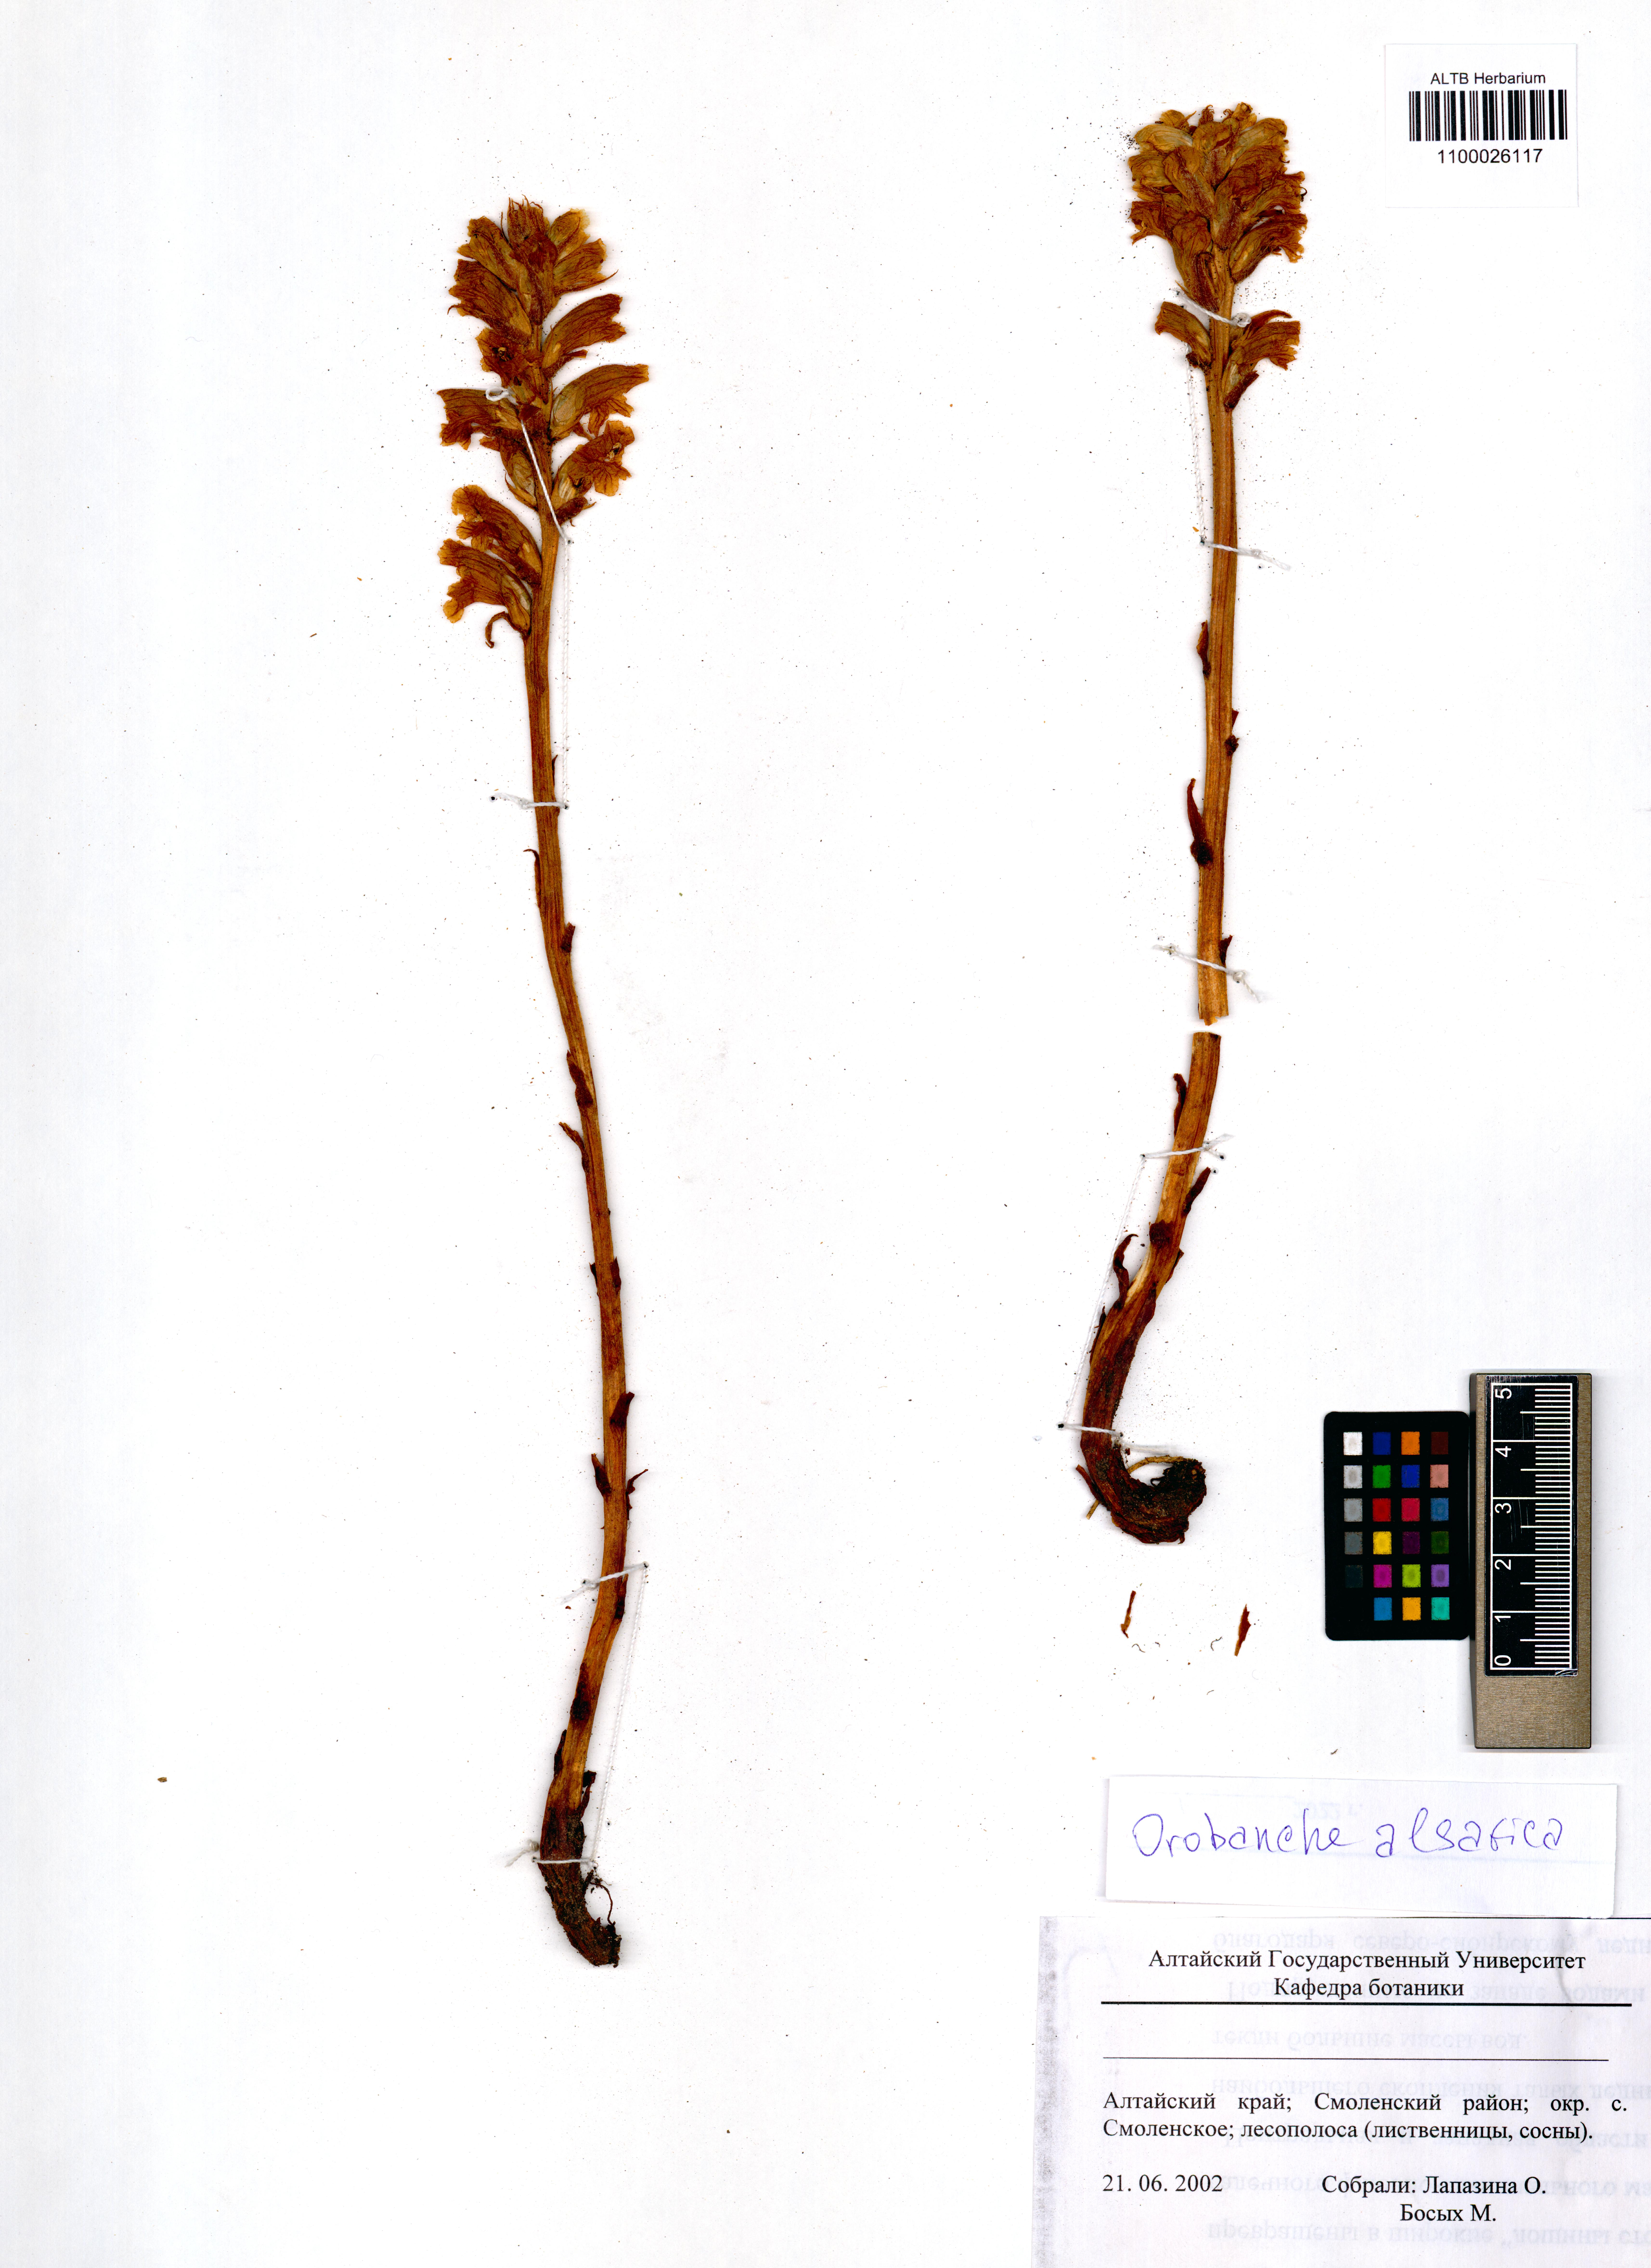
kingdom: Plantae
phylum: Tracheophyta
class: Magnoliopsida
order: Lamiales
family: Orobanchaceae
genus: Orobanche
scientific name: Orobanche alsatica
